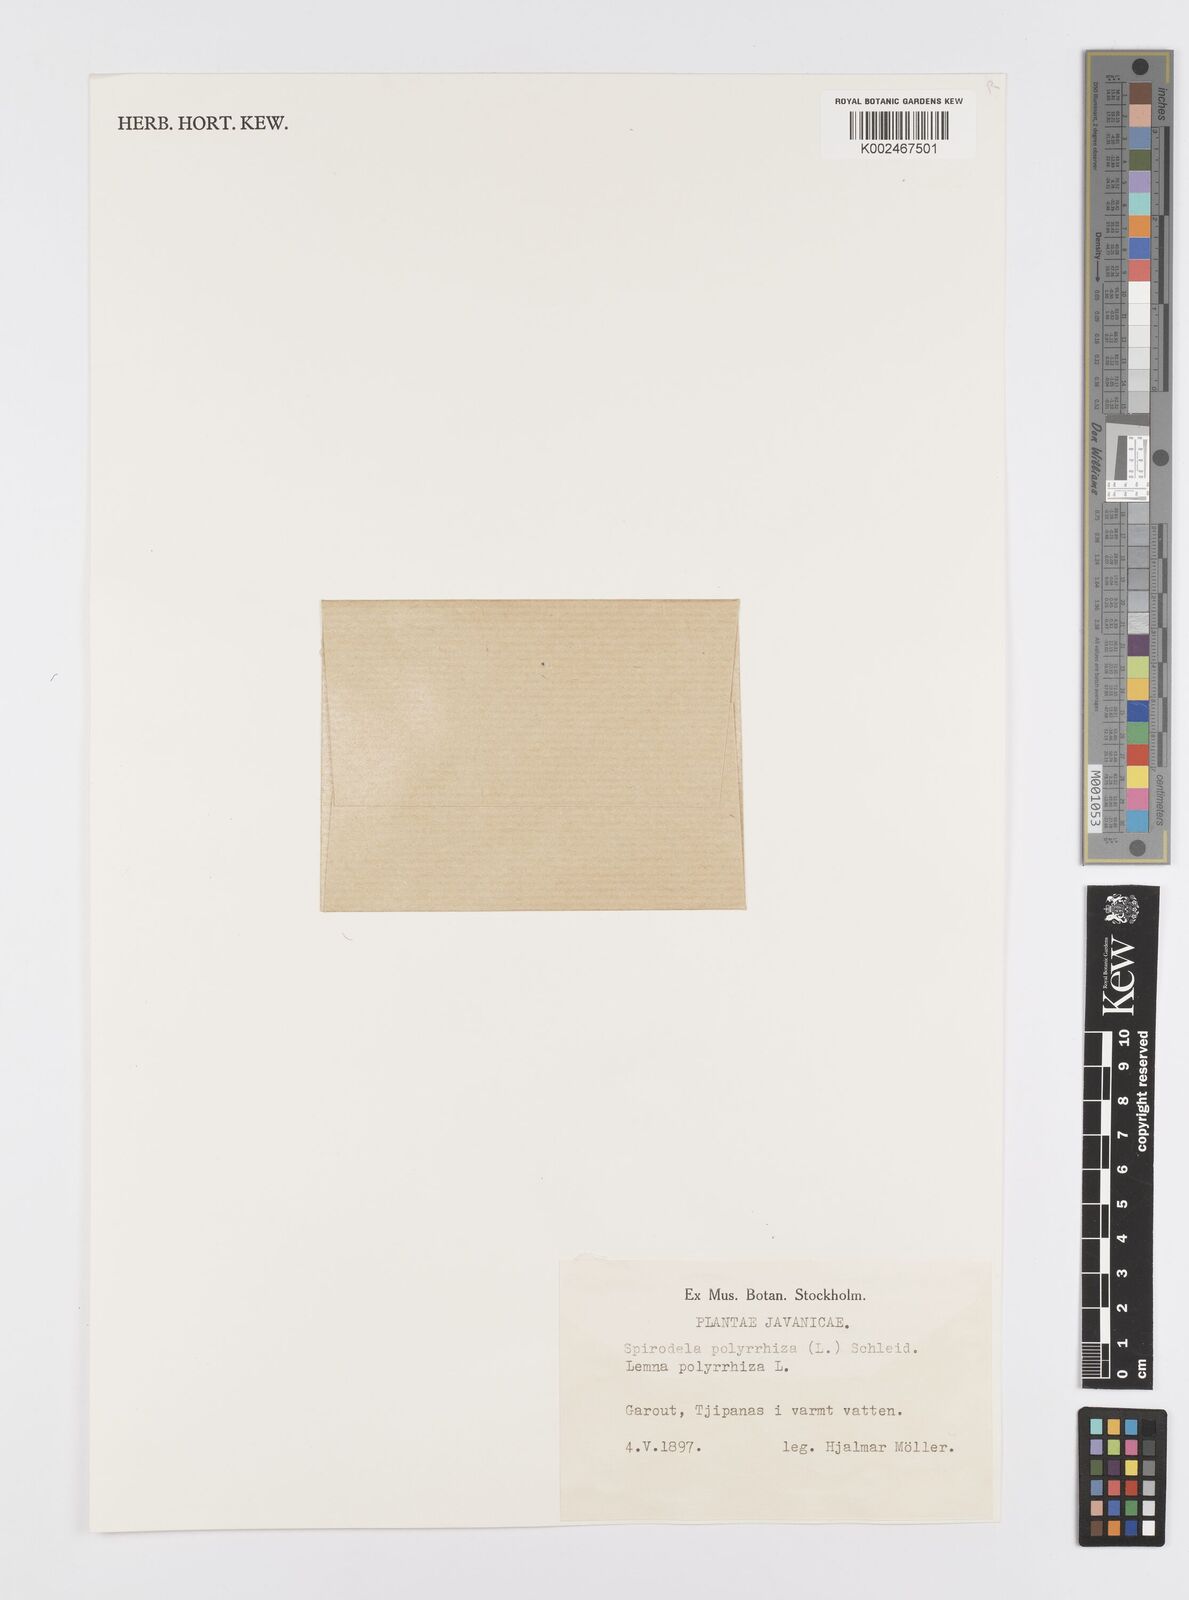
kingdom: Plantae
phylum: Tracheophyta
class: Liliopsida
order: Alismatales
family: Araceae
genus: Spirodela
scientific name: Spirodela polyrhiza
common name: Great duckweed
